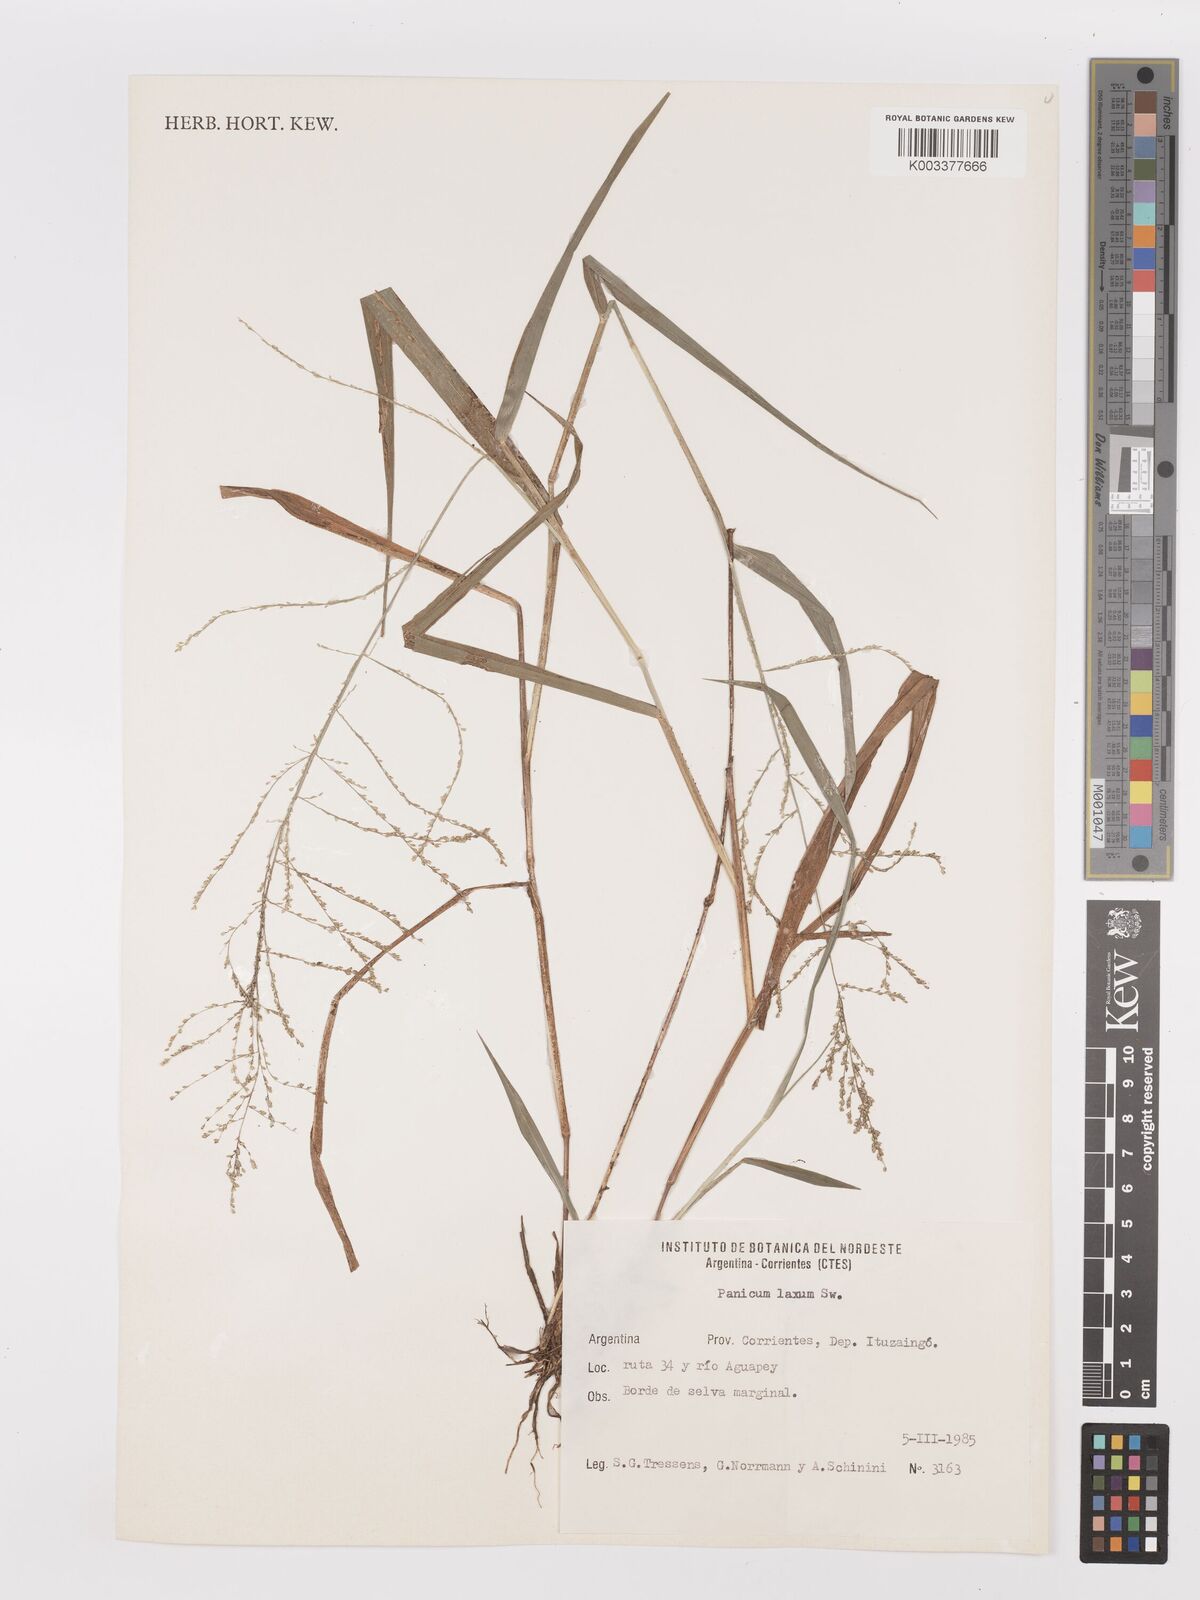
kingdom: Plantae
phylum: Tracheophyta
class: Liliopsida
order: Poales
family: Poaceae
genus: Steinchisma
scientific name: Steinchisma laxum
